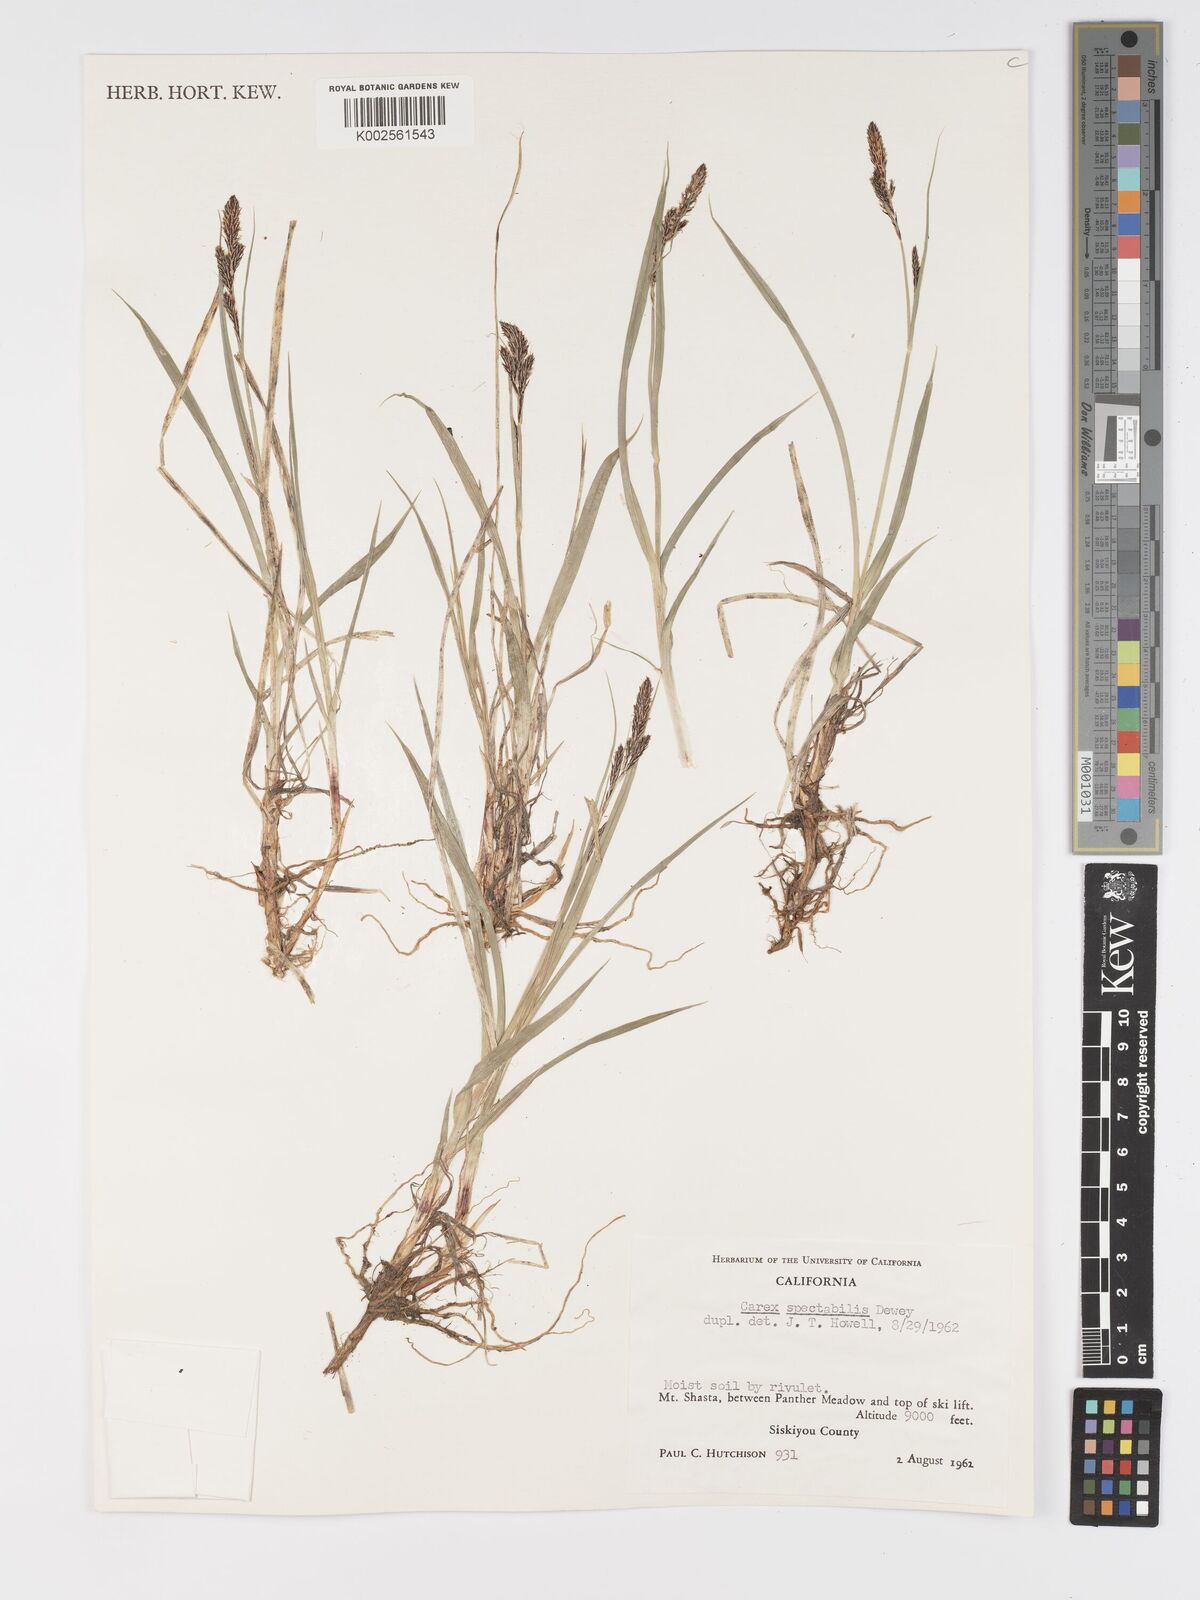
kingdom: Plantae
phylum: Tracheophyta
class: Liliopsida
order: Poales
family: Cyperaceae
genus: Carex
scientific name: Carex spectabilis
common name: Northwestern showy sedge
